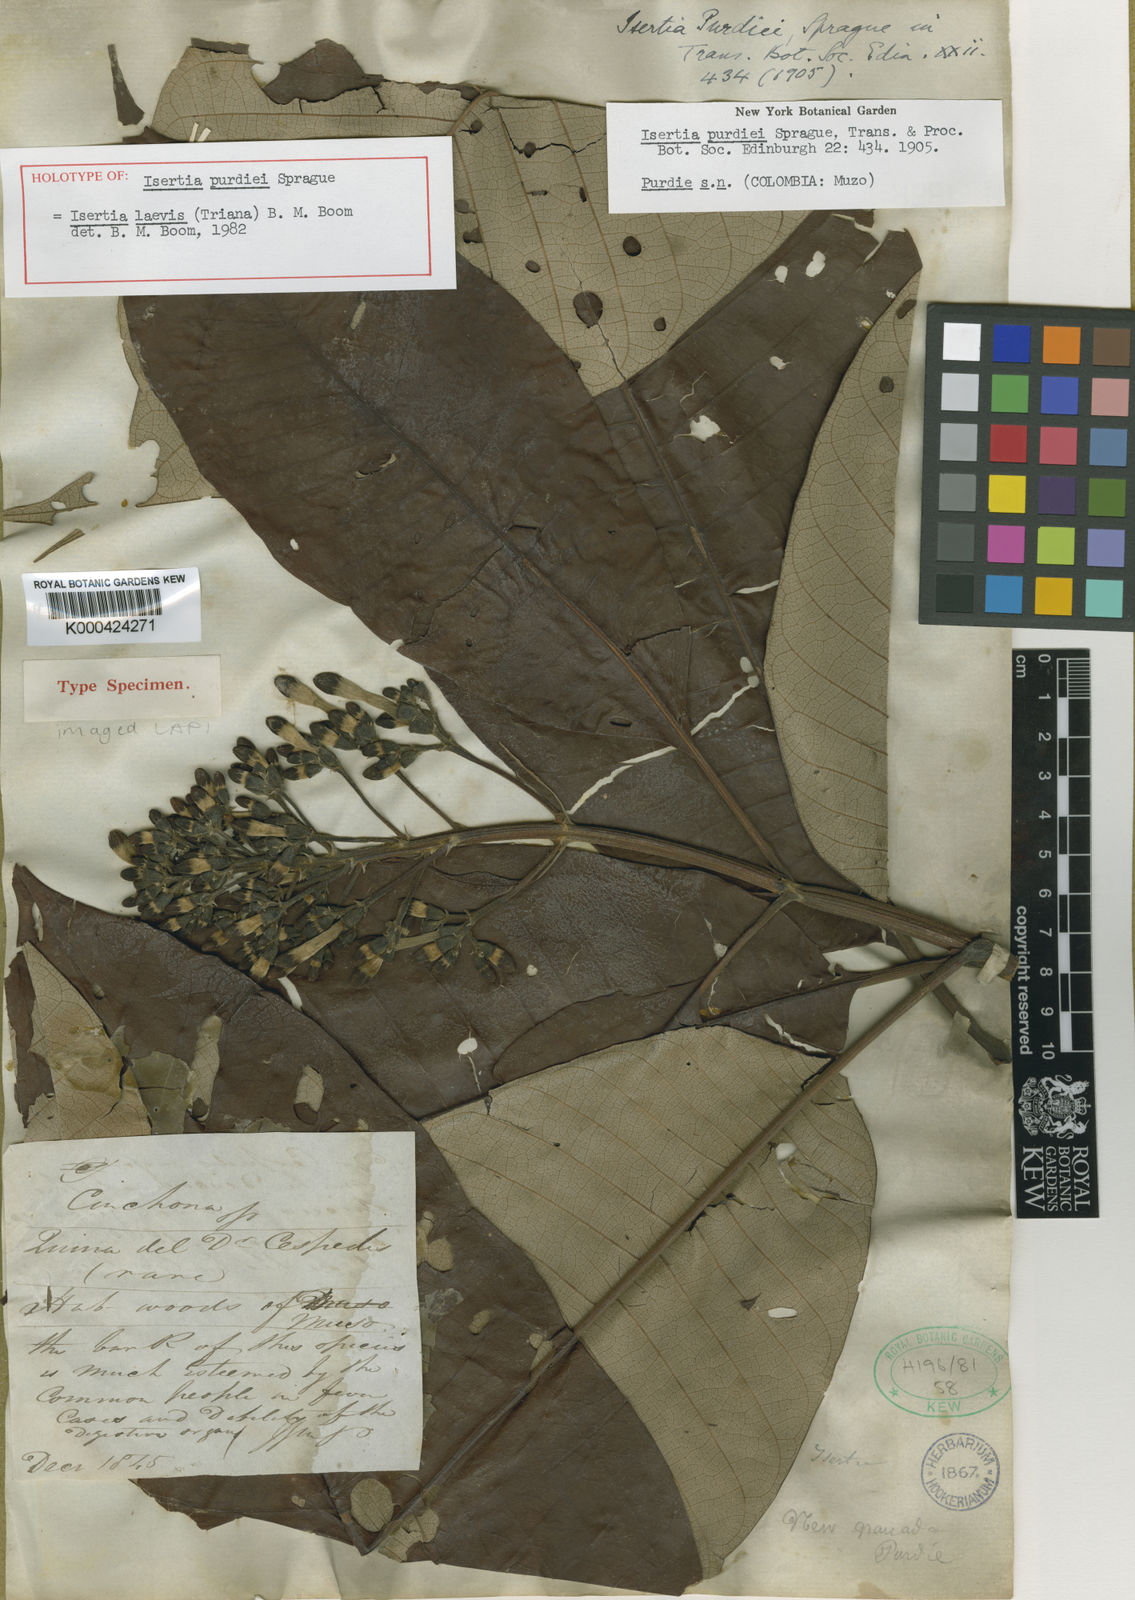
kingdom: Plantae
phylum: Tracheophyta
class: Magnoliopsida
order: Gentianales
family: Rubiaceae
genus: Isertia
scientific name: Isertia laevis
